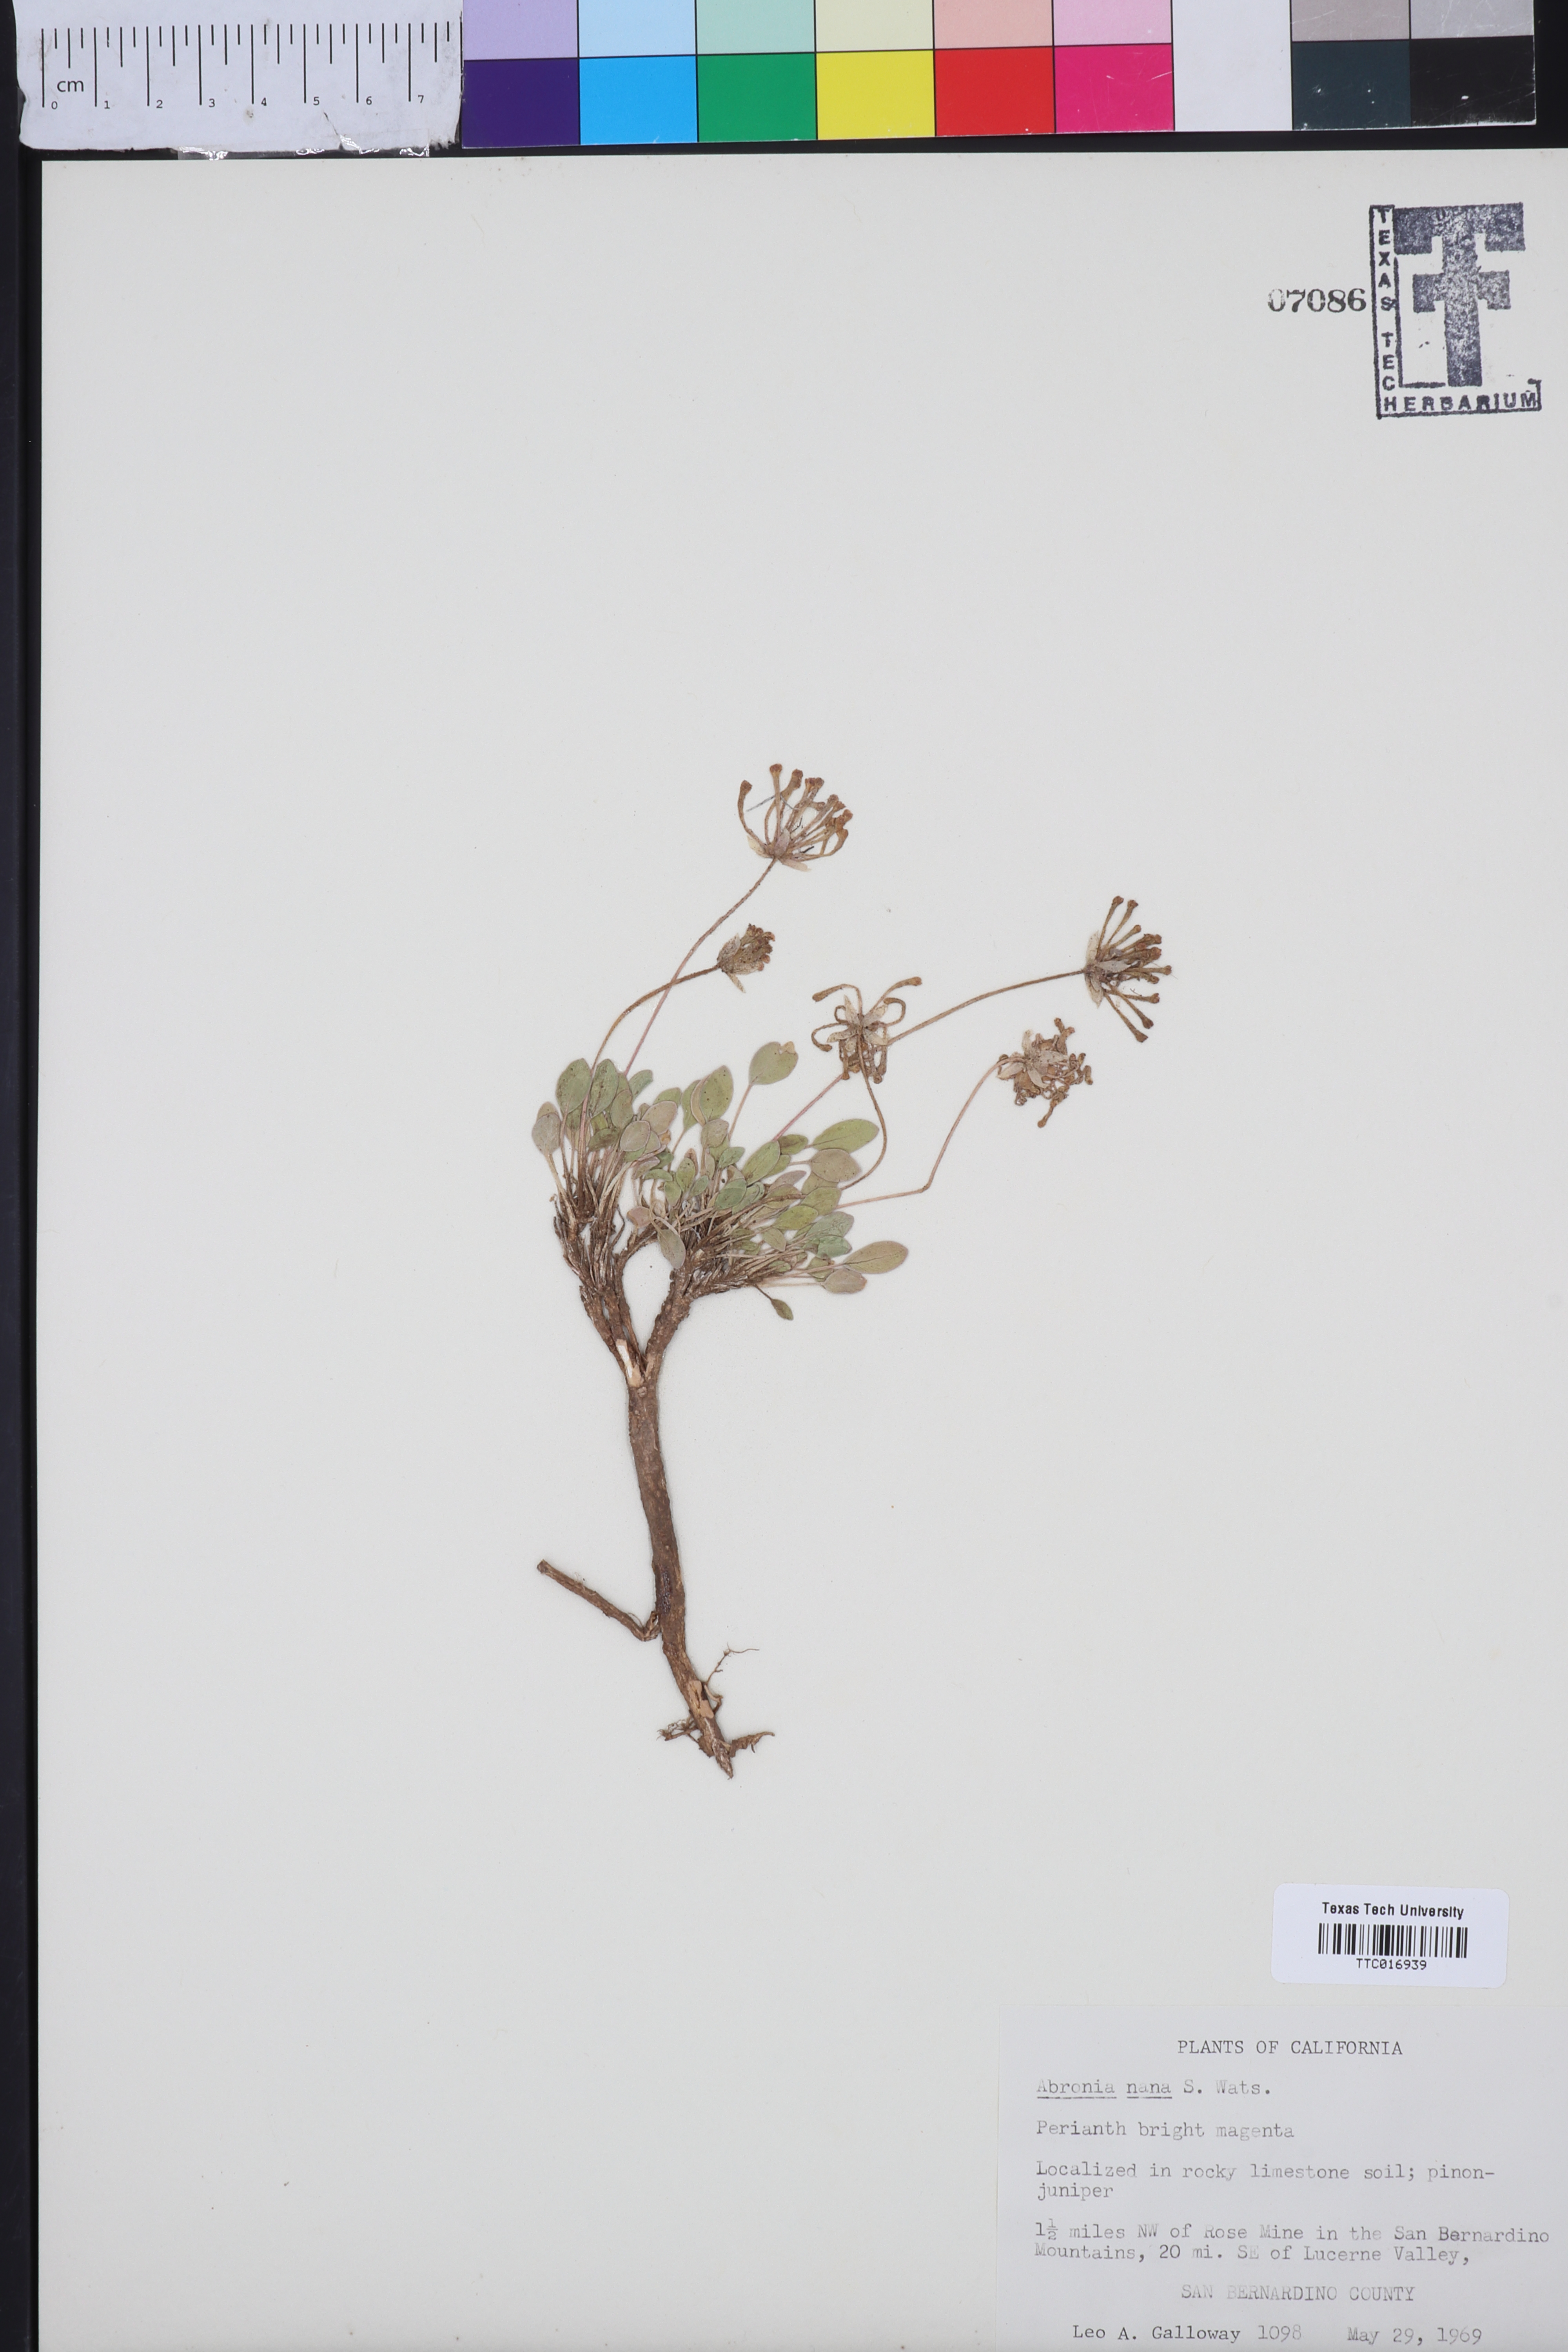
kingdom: Plantae
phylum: Tracheophyta
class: Magnoliopsida
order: Caryophyllales
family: Nyctaginaceae
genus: Abronia
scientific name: Abronia nana
